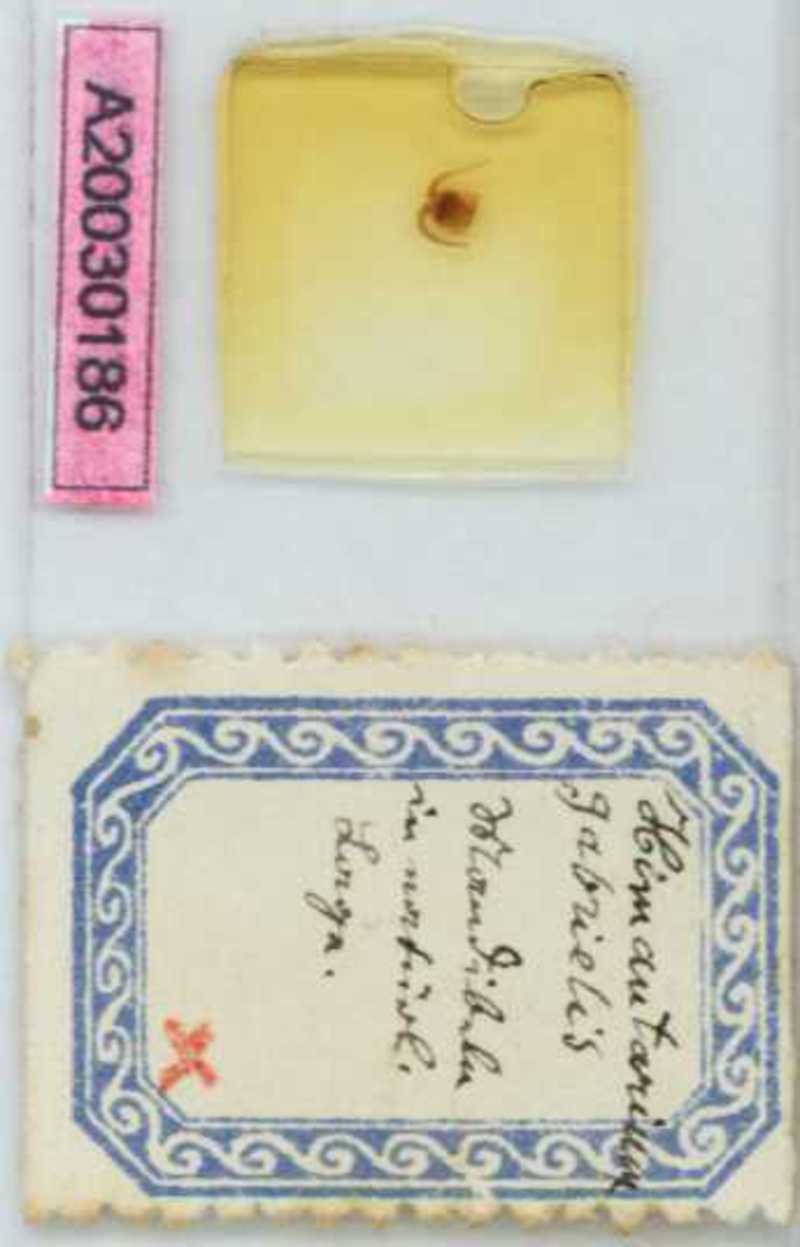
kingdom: Animalia
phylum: Arthropoda
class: Chilopoda
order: Geophilomorpha
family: Himantariidae
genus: Himantarium
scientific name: Himantarium gabrielis
